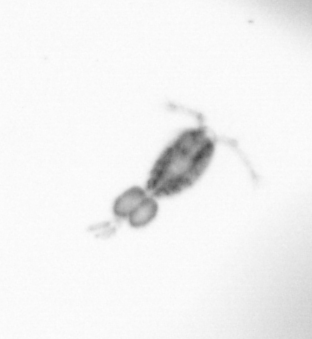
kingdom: Animalia
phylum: Arthropoda
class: Copepoda
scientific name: Copepoda
